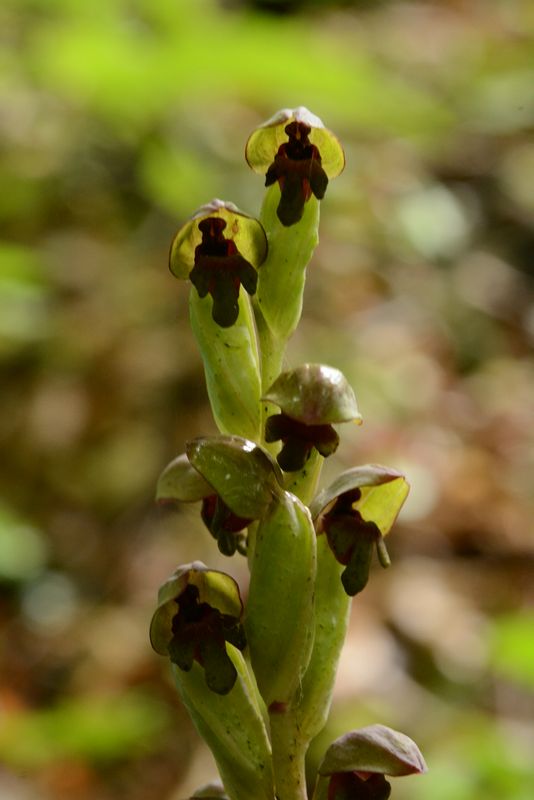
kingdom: Plantae
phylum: Tracheophyta
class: Liliopsida
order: Asparagales
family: Orchidaceae
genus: Steveniella
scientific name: Steveniella satyrioides
